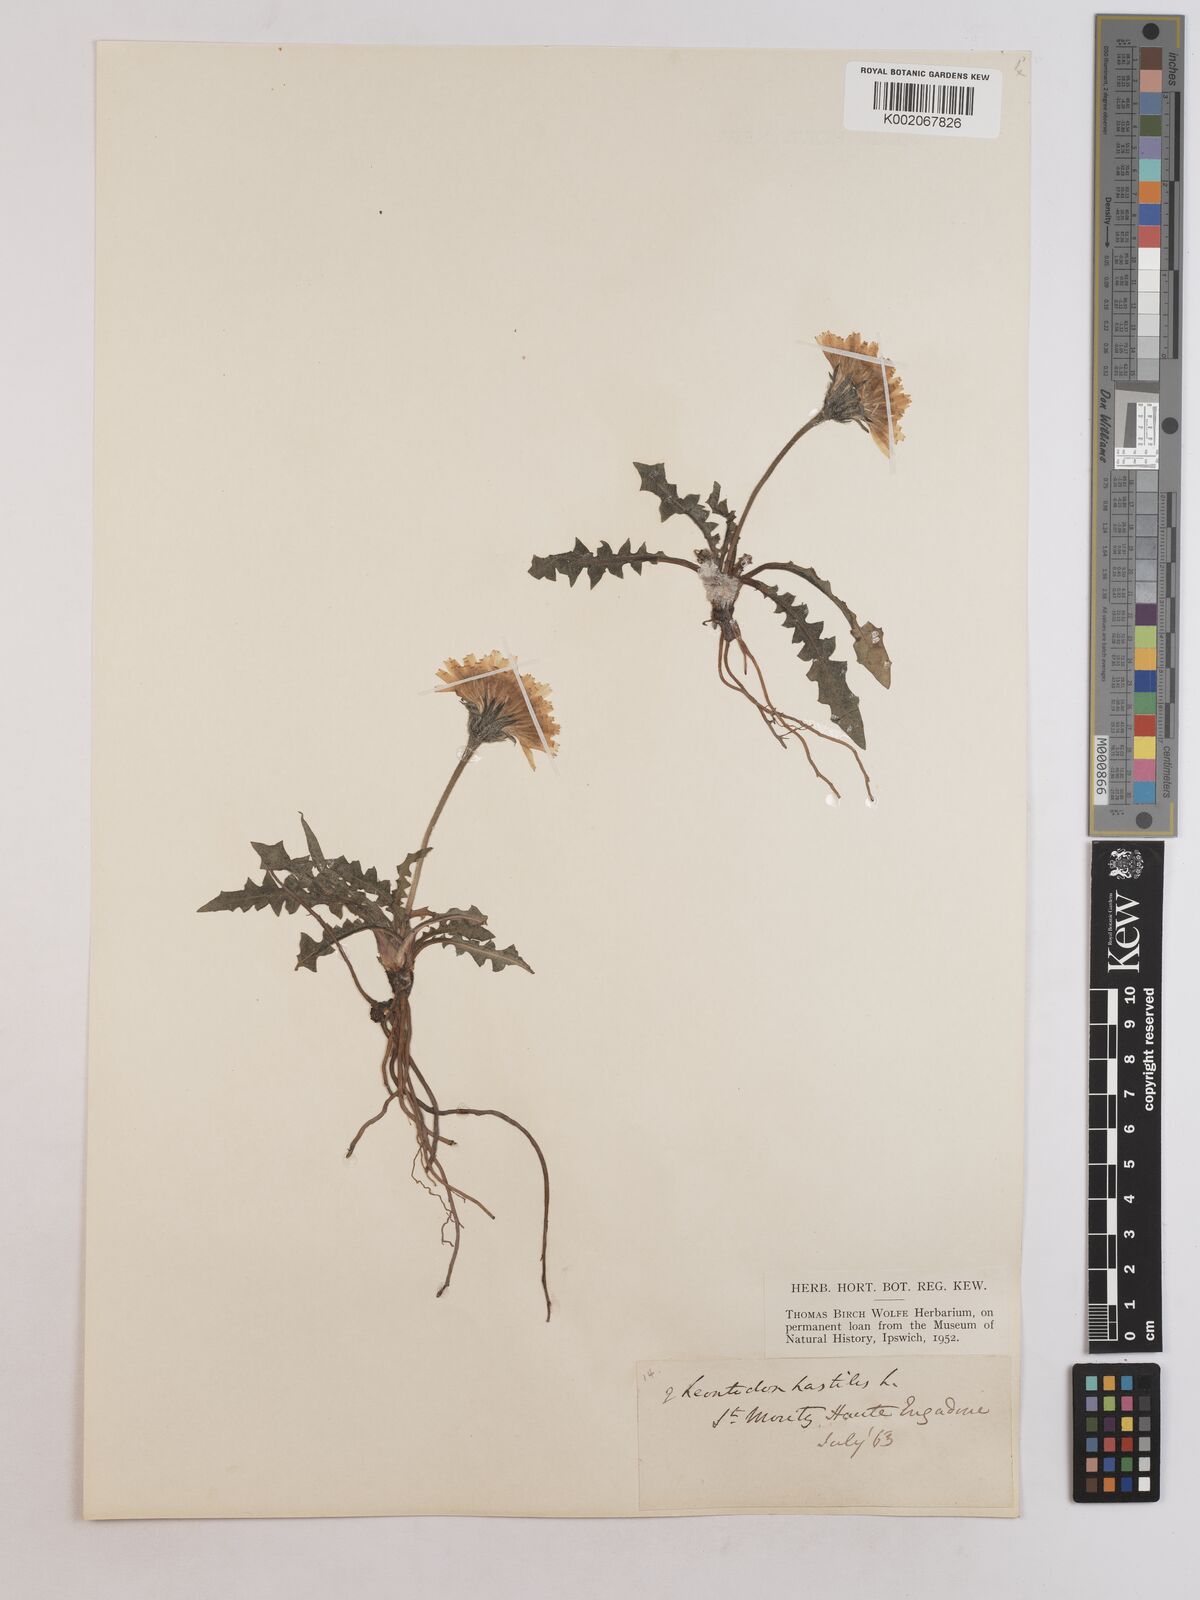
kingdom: Plantae
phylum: Tracheophyta
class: Magnoliopsida
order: Asterales
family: Asteraceae
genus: Leontodon
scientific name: Leontodon hispidus
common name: Rough hawkbit
